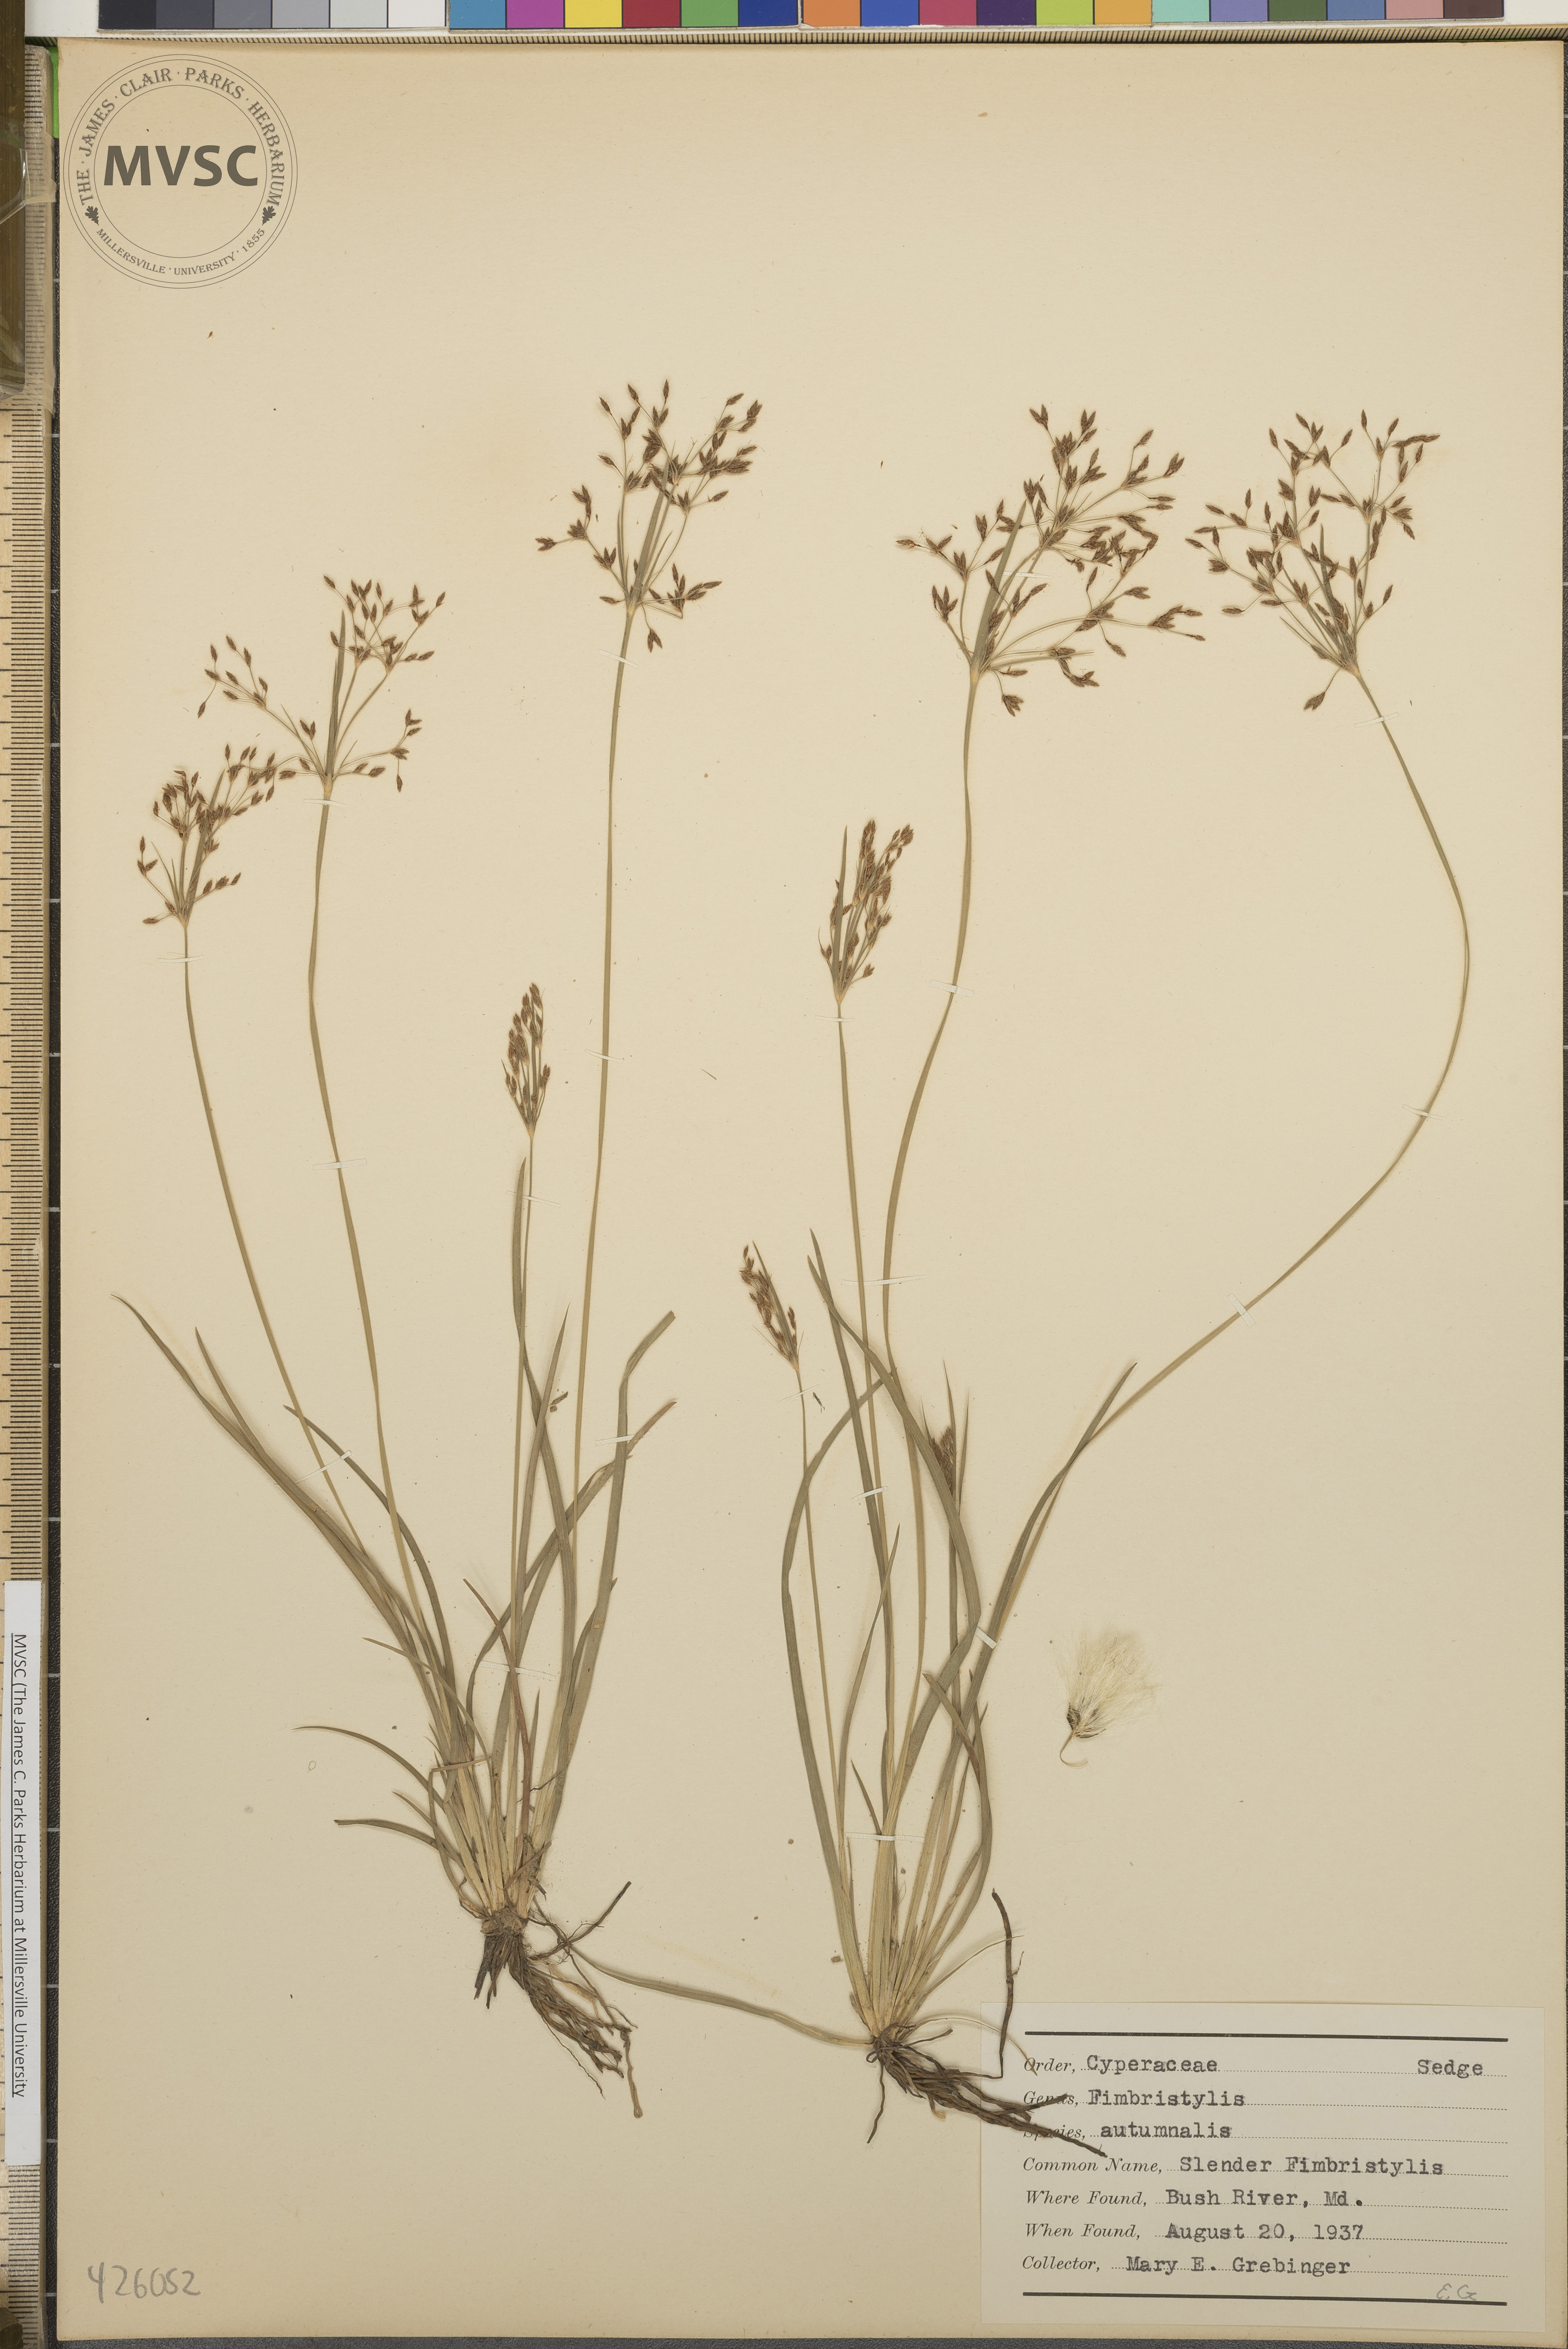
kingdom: Plantae
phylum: Tracheophyta
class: Liliopsida
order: Poales
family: Cyperaceae
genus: Fimbristylis
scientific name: Fimbristylis autumnalis
